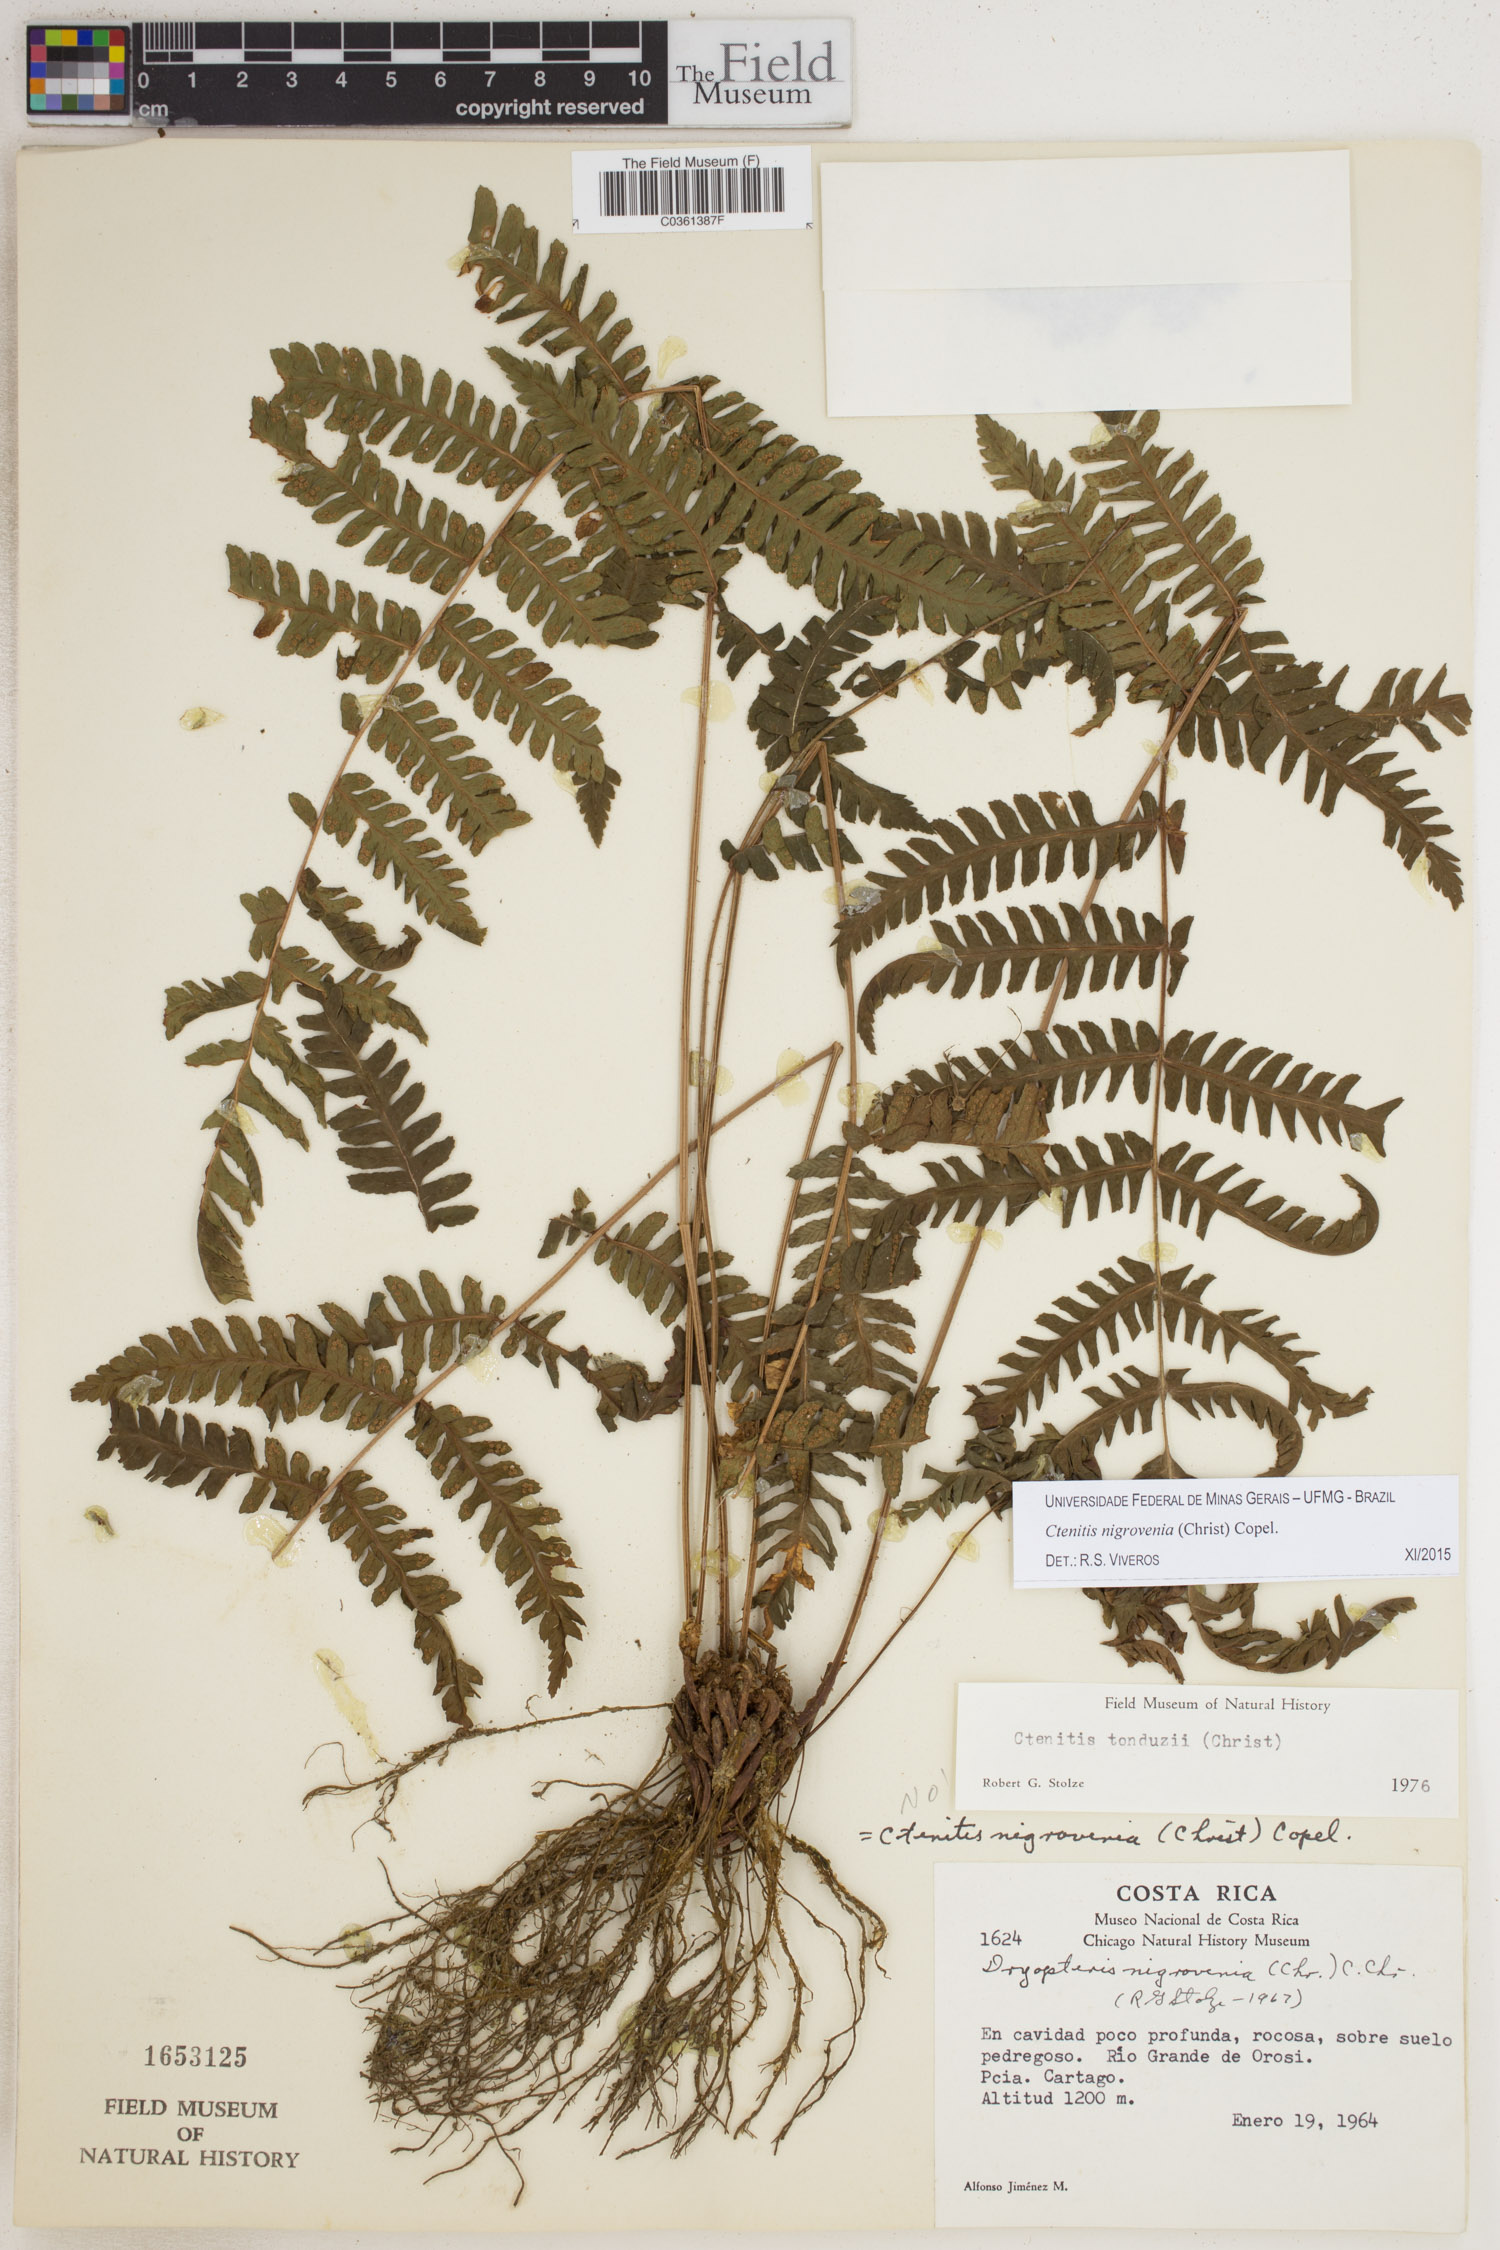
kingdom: Plantae
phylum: Tracheophyta
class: Polypodiopsida
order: Polypodiales
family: Dryopteridaceae
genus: Ctenitis
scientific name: Ctenitis nigrovenia
